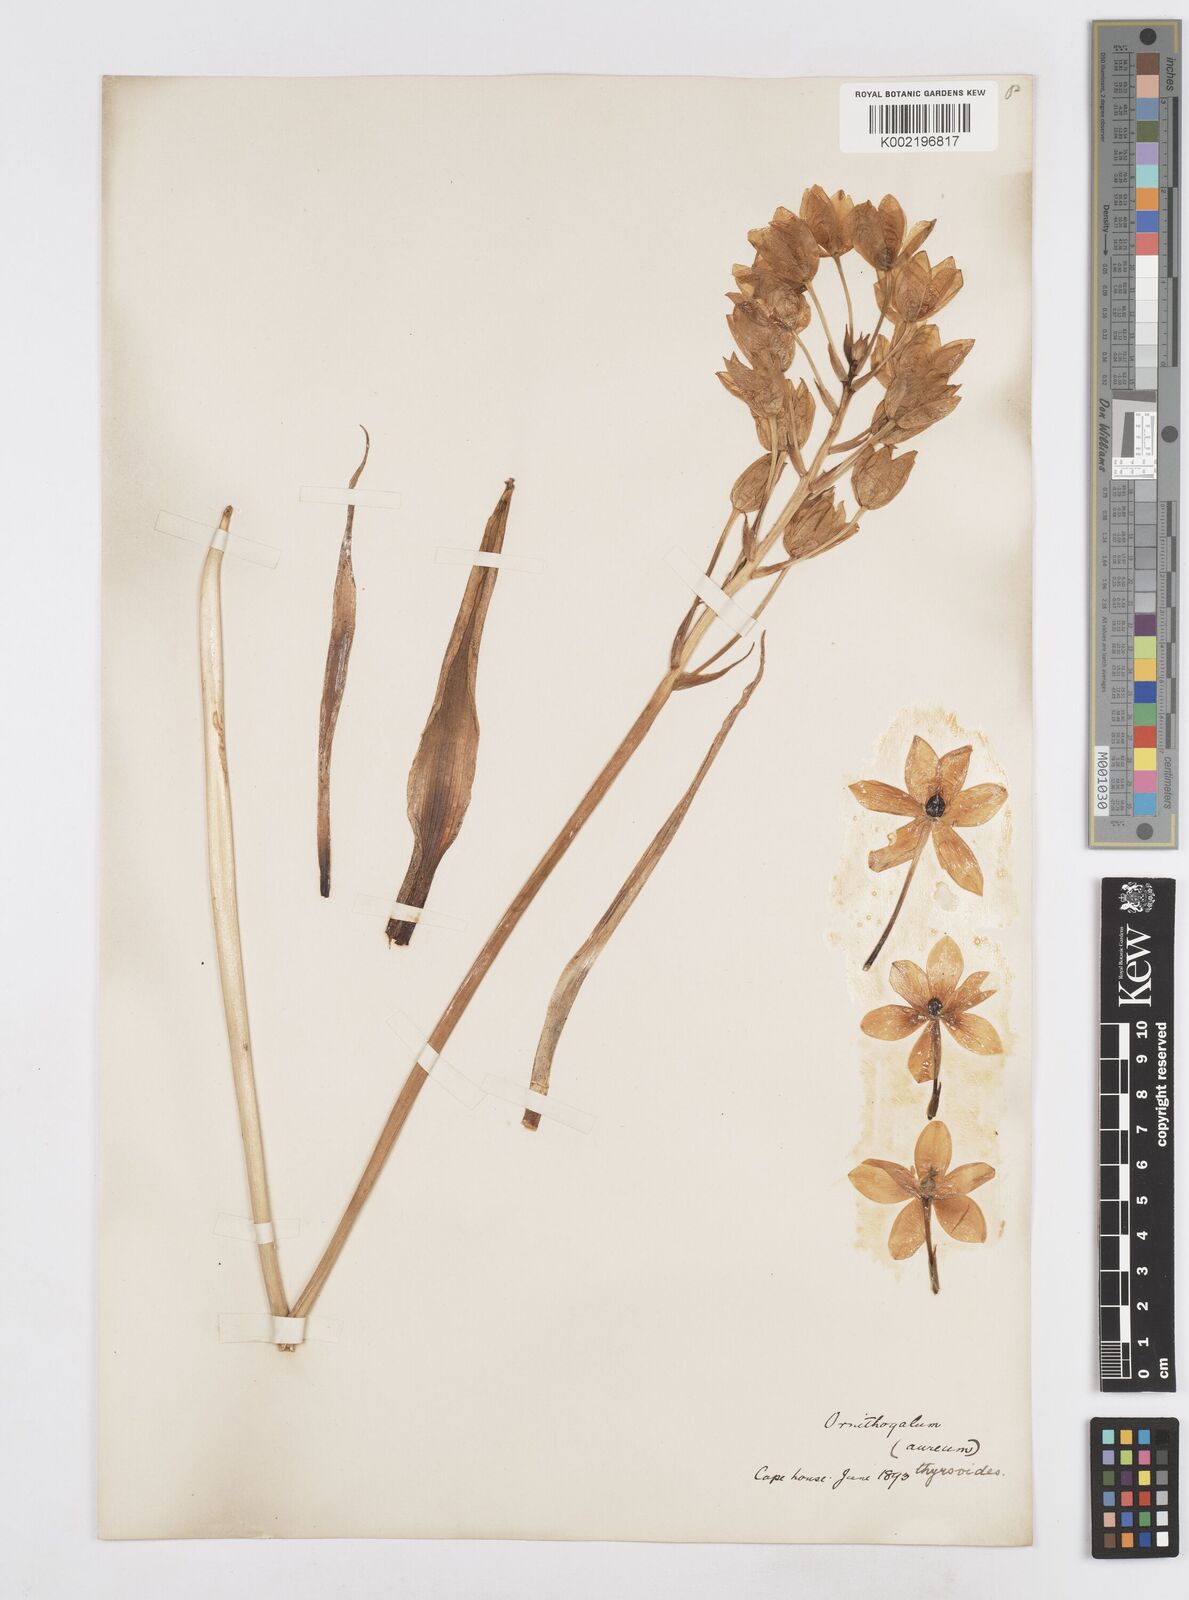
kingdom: Plantae
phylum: Tracheophyta
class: Liliopsida
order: Asparagales
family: Asparagaceae
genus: Ornithogalum
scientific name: Ornithogalum thyrsoides
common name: Chincherinchee
